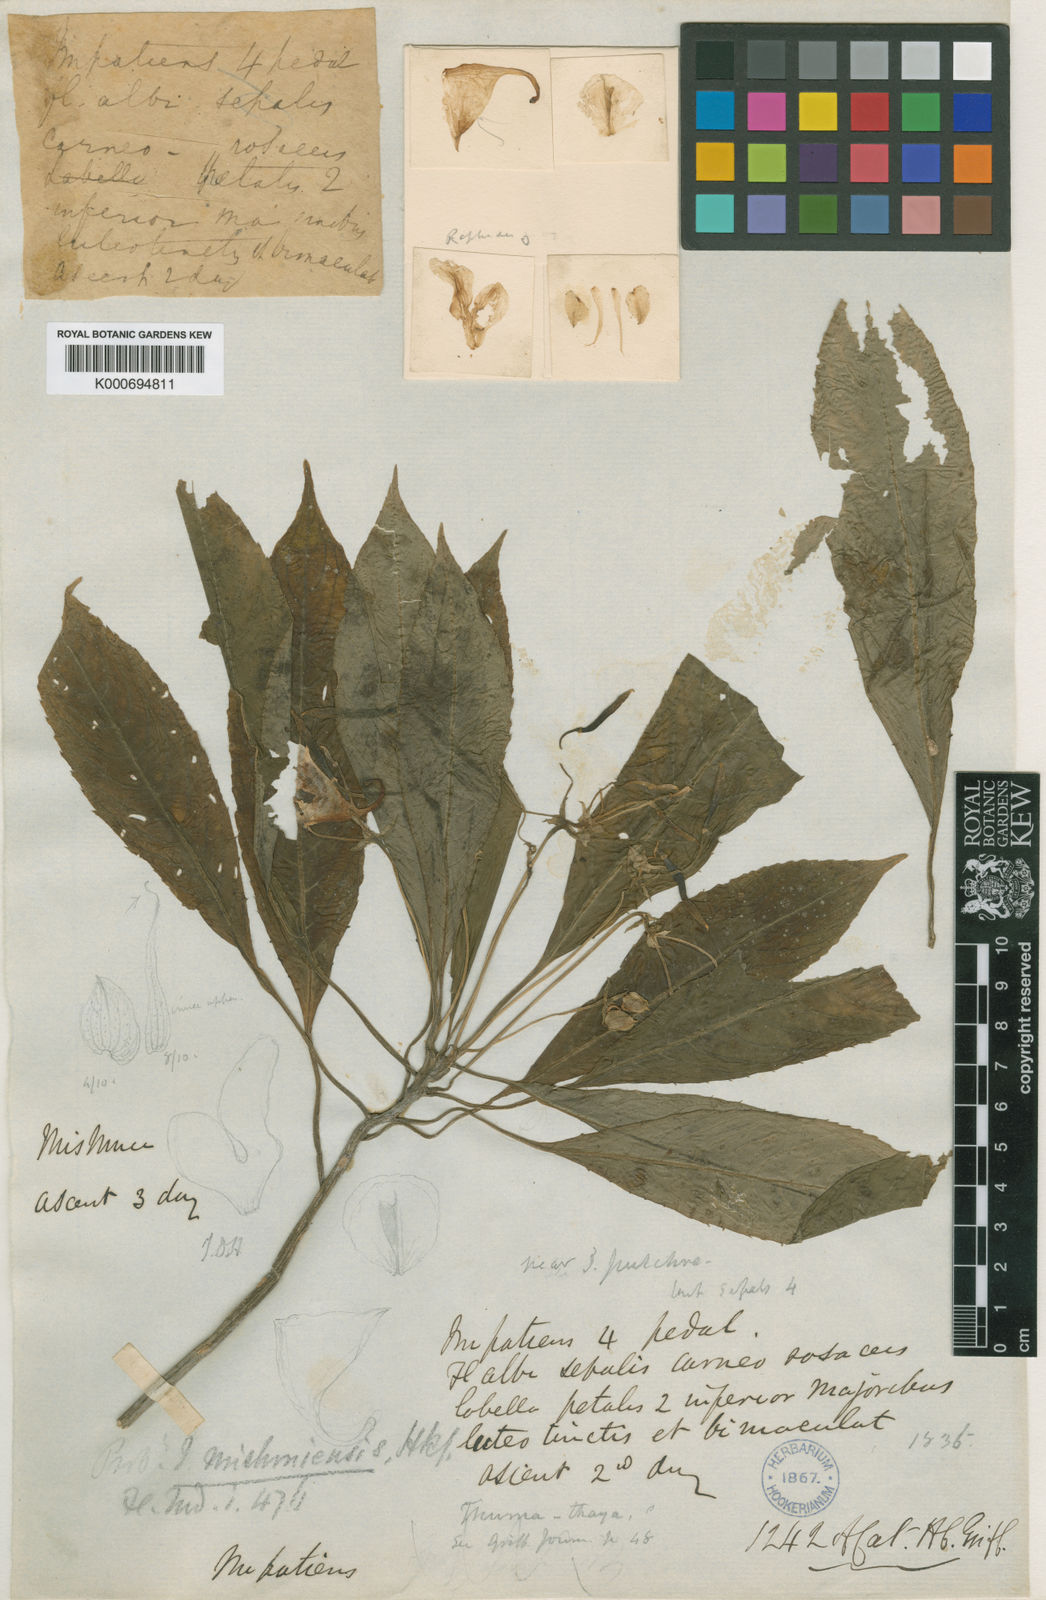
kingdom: Plantae
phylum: Tracheophyta
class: Magnoliopsida
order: Ericales
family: Balsaminaceae
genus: Impatiens
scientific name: Impatiens laevigata
